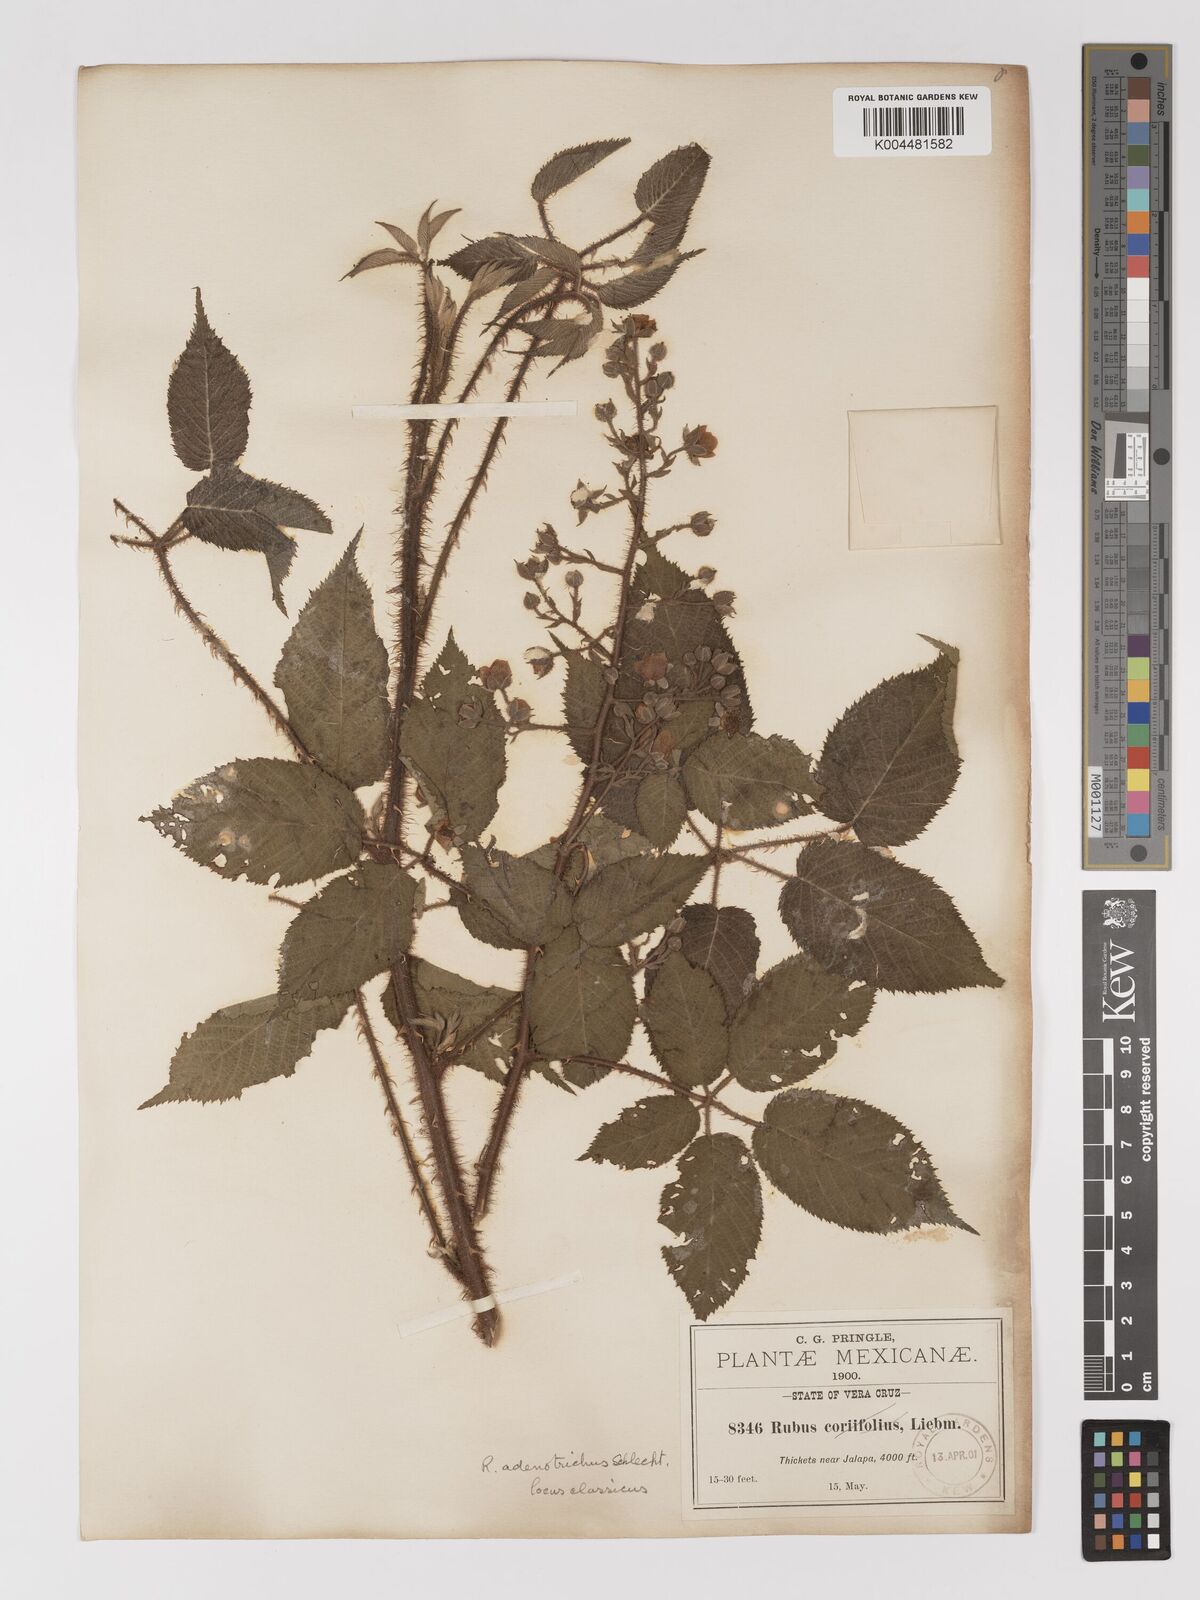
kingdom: Plantae
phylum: Tracheophyta
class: Magnoliopsida
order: Rosales
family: Rosaceae
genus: Rubus
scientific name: Rubus adenotrichos
